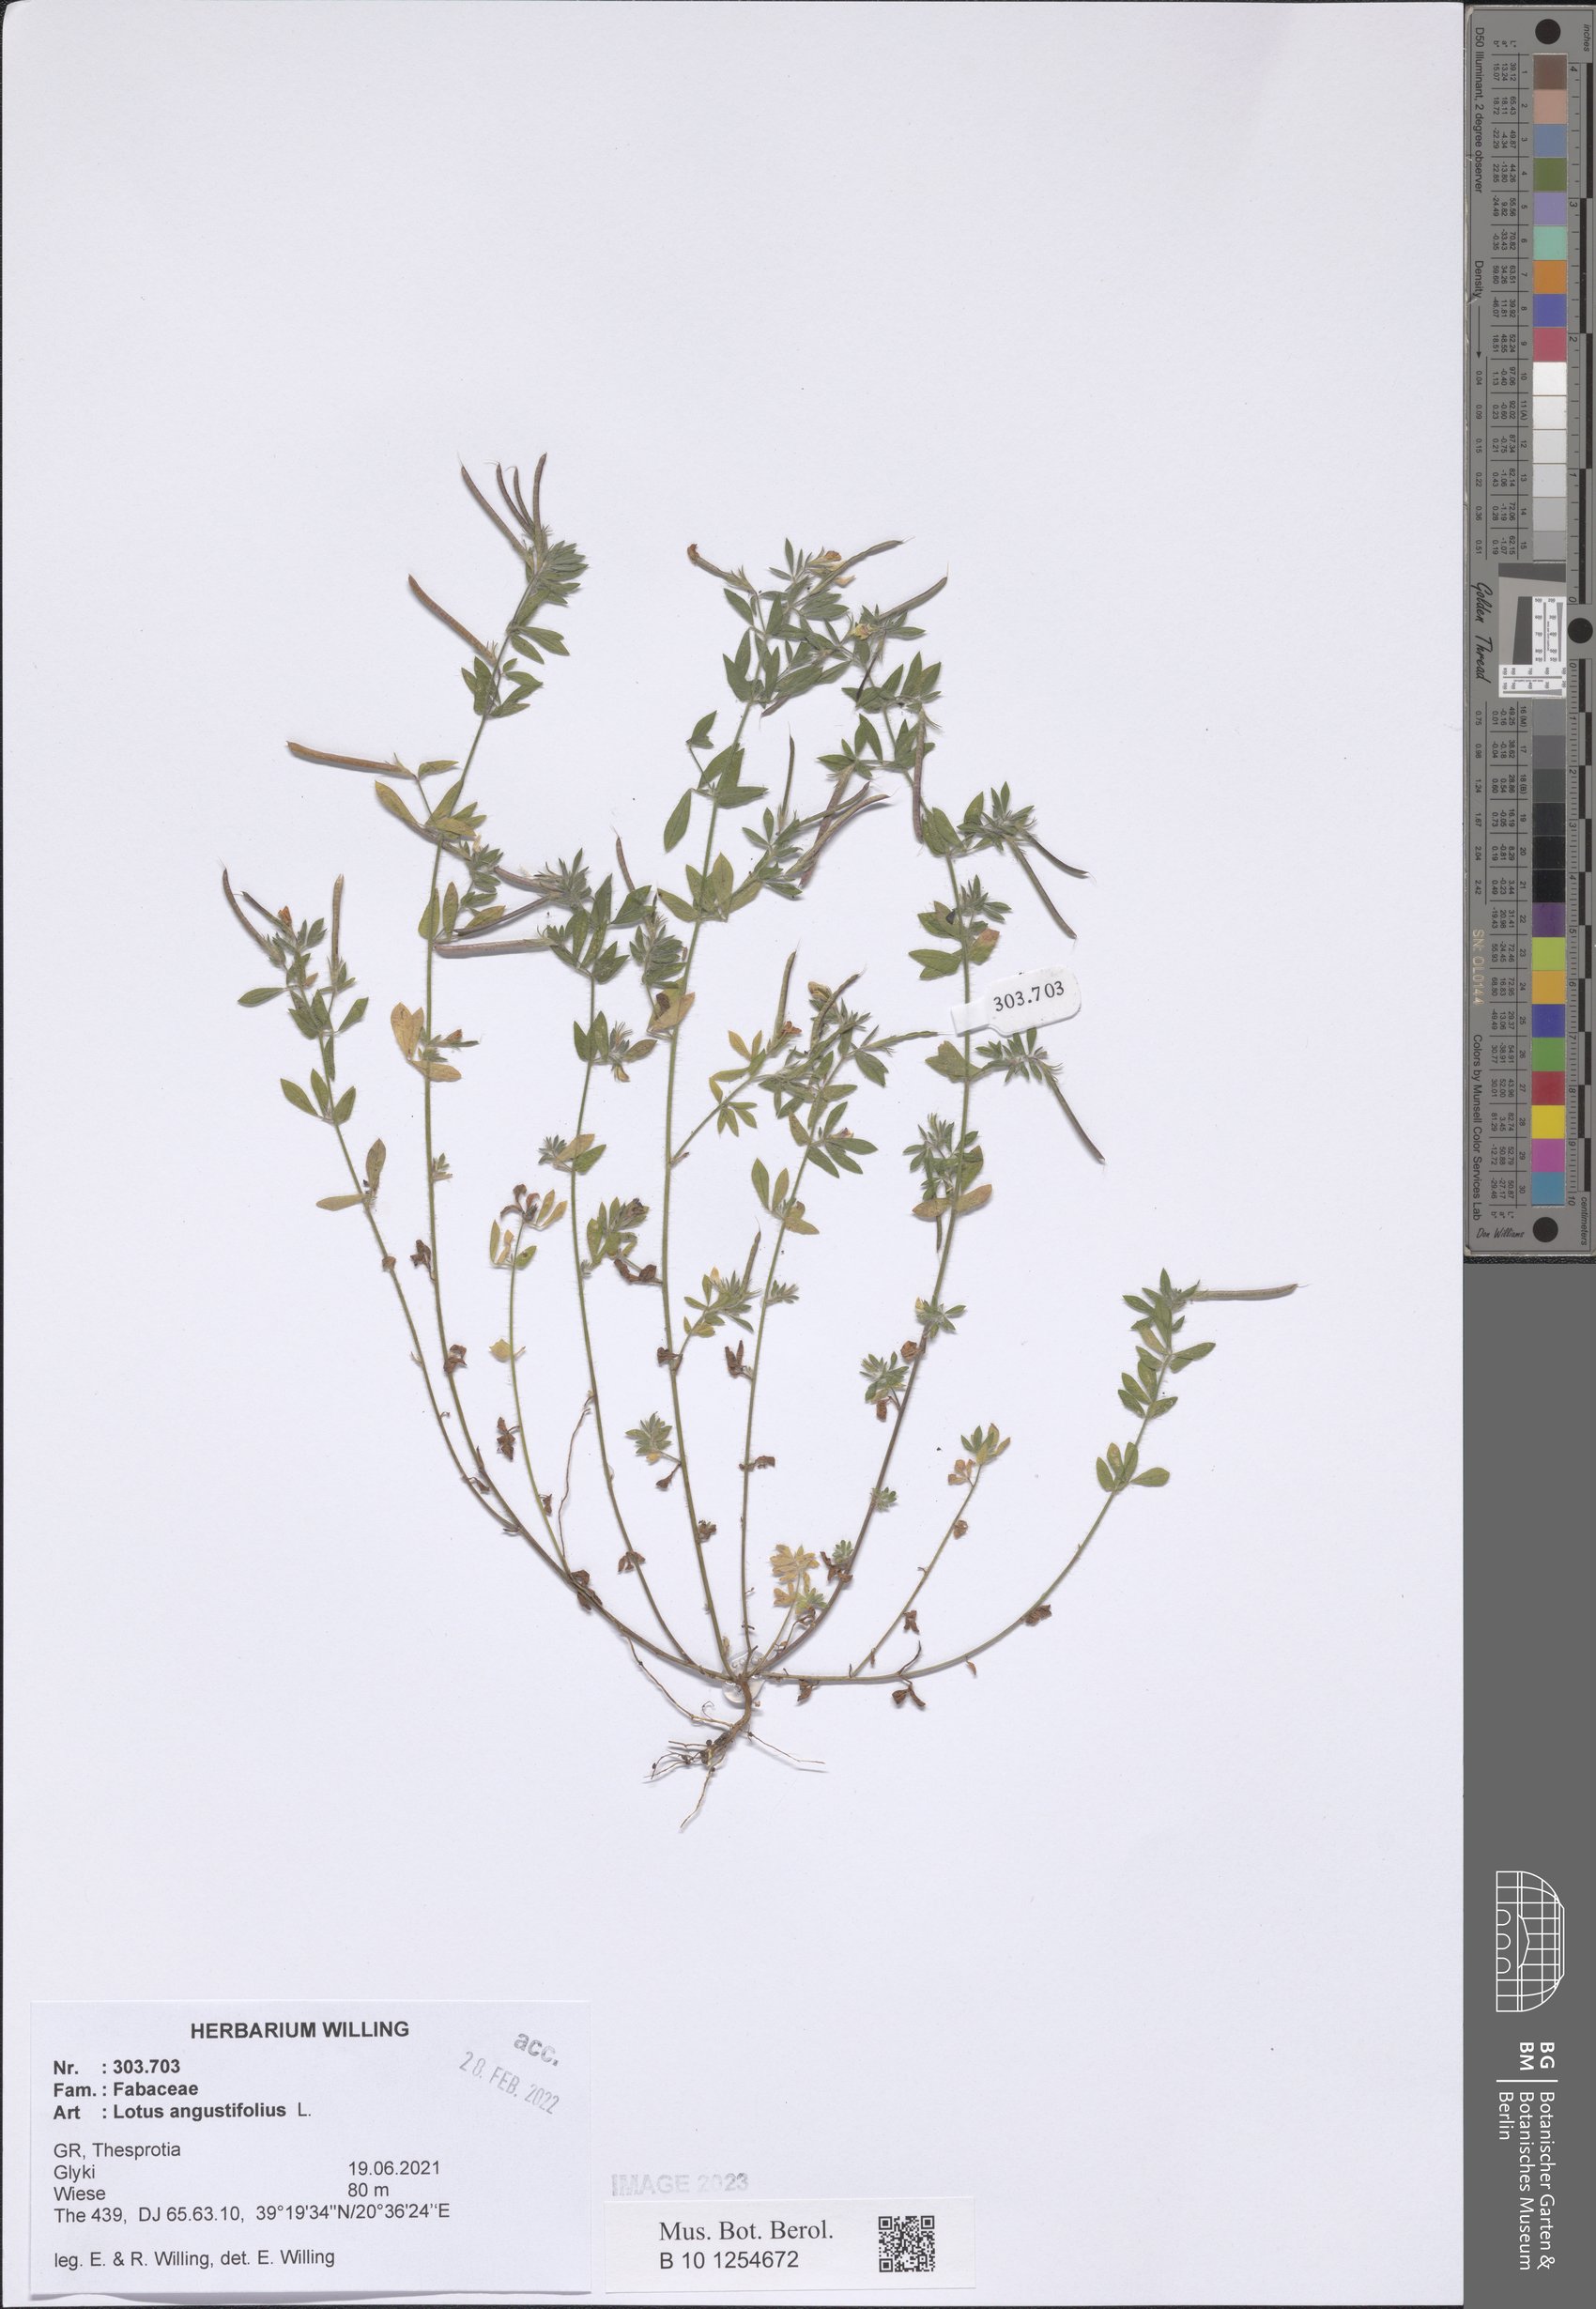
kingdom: Plantae
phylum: Tracheophyta
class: Magnoliopsida
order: Fabales
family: Fabaceae
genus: Lotus
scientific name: Lotus angustissimus
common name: Slender bird's-foot trefoil
